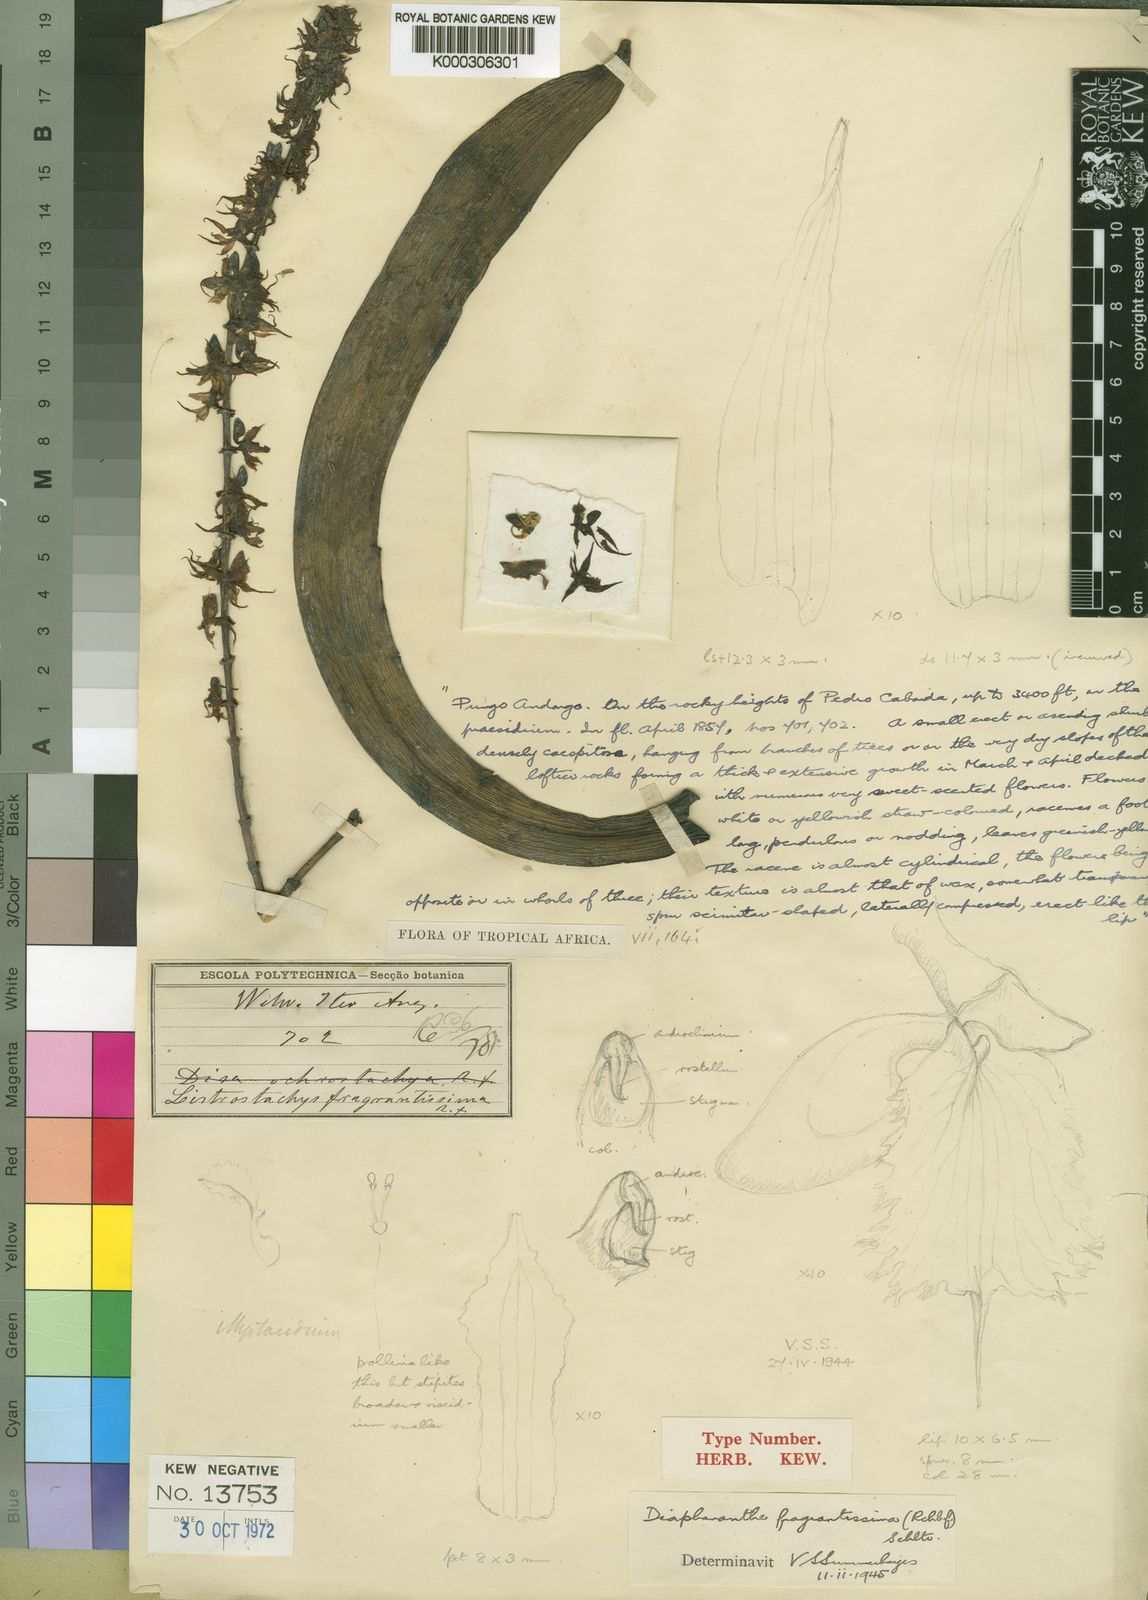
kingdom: Plantae
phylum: Tracheophyta
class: Liliopsida
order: Asparagales
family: Orchidaceae
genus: Diaphananthe
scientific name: Diaphananthe fragrantissima
